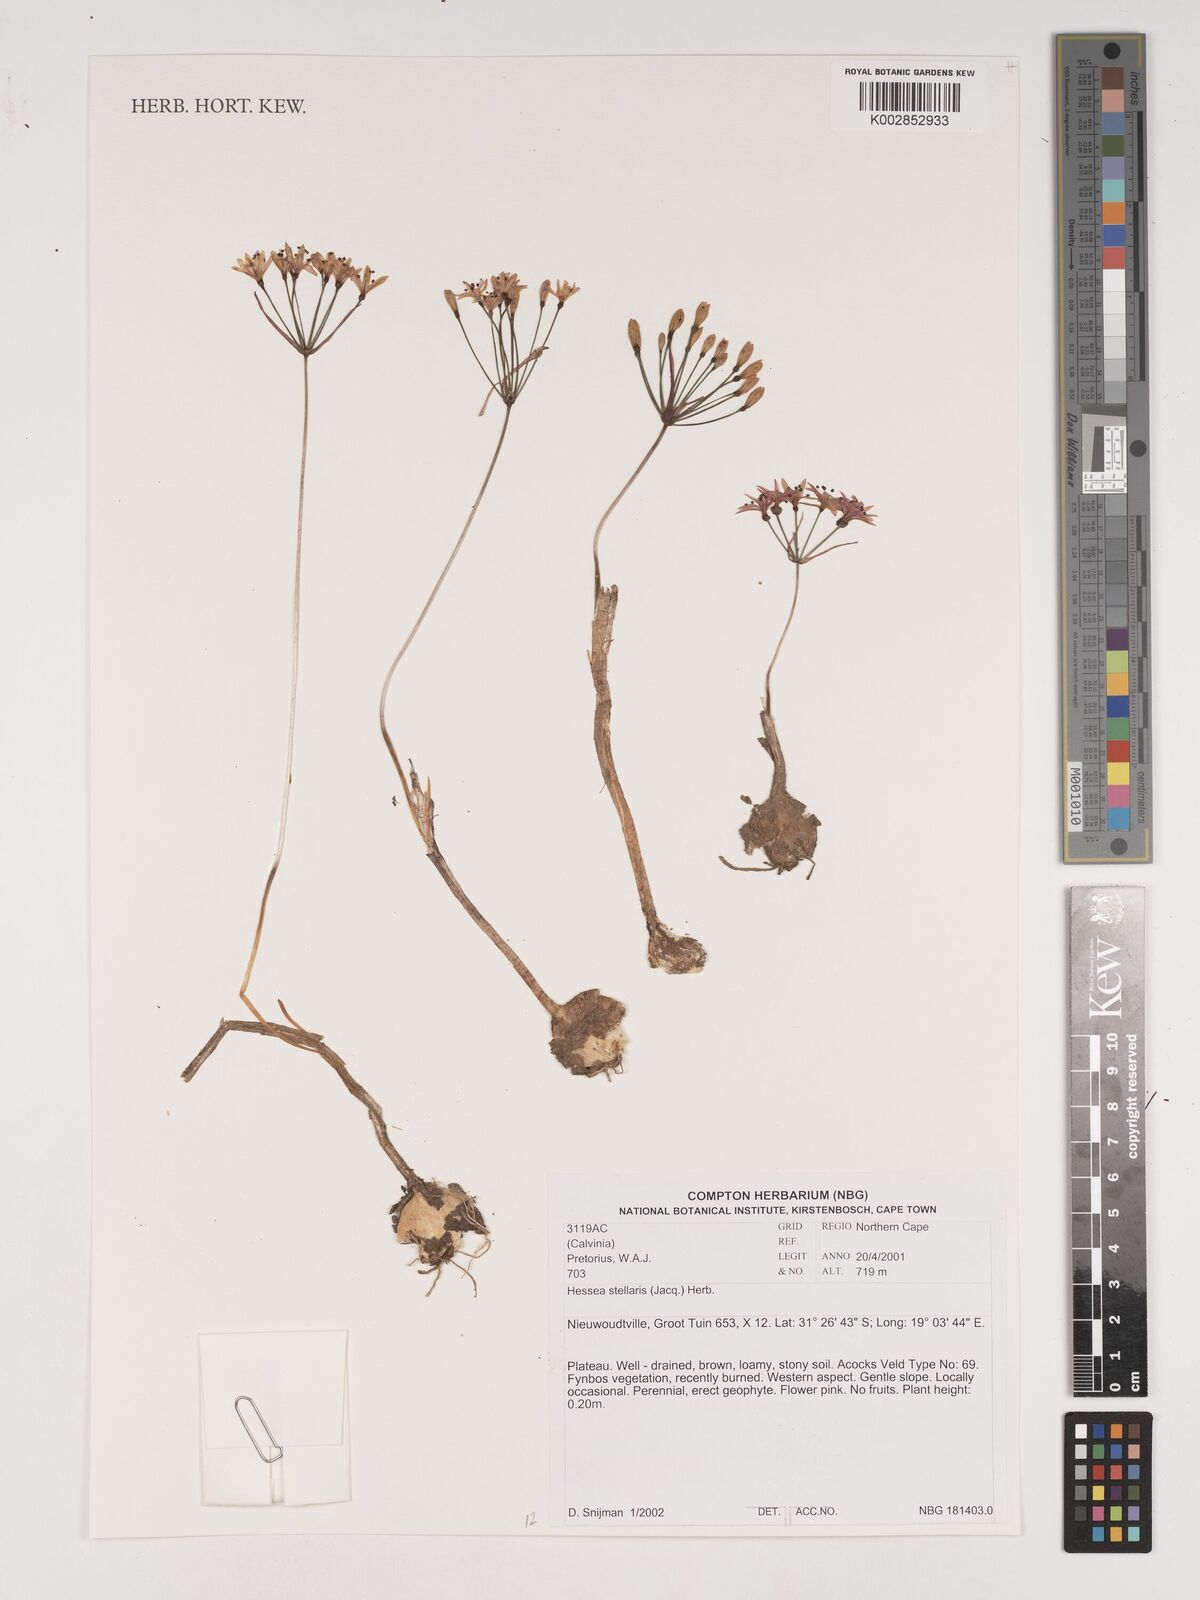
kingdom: Plantae
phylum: Tracheophyta
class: Liliopsida
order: Asparagales
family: Amaryllidaceae
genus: Hessea
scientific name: Hessea stellaris
